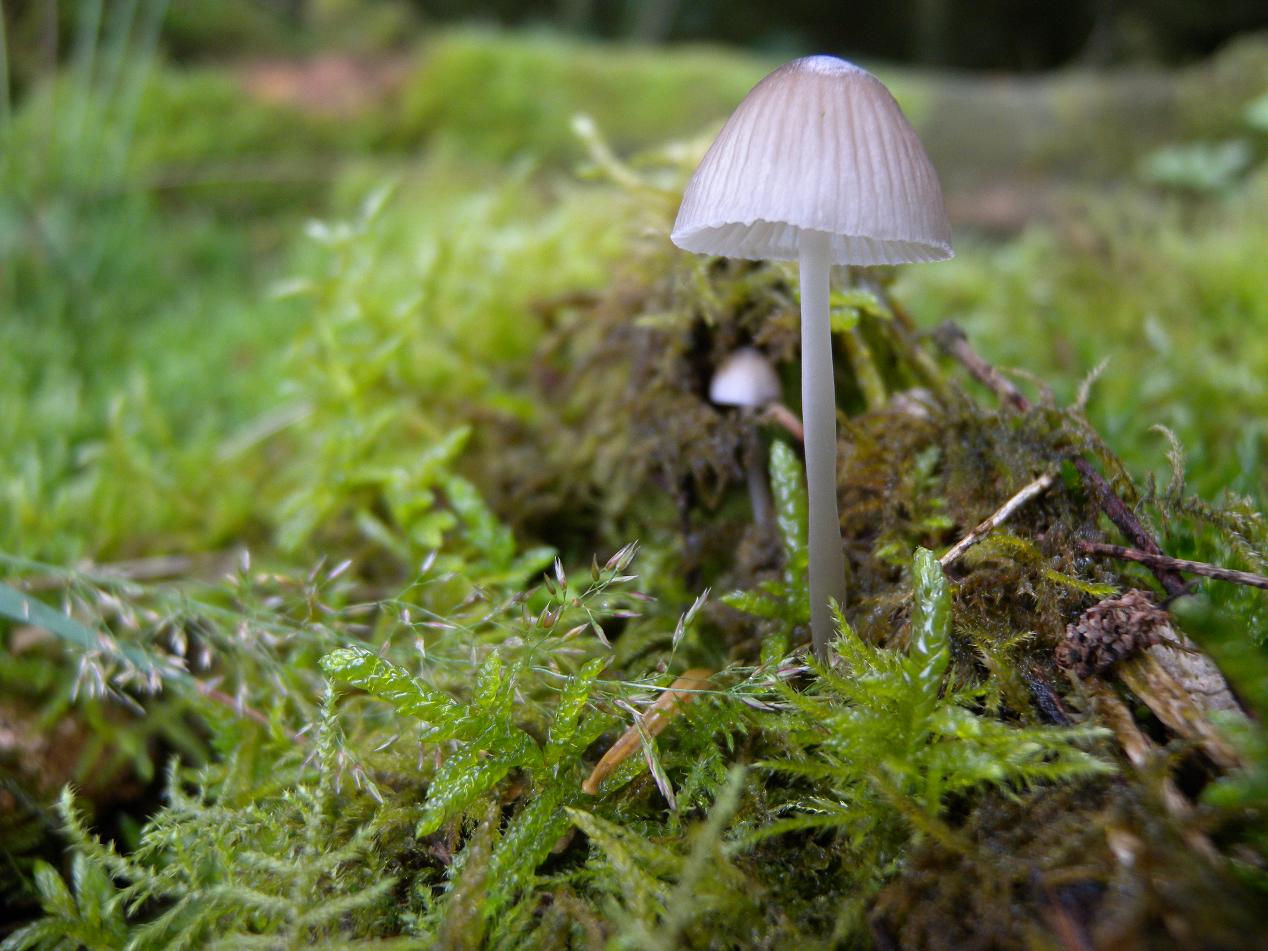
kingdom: Fungi
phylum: Basidiomycota
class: Agaricomycetes
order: Agaricales
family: Mycenaceae
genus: Mycena
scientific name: Mycena abramsii
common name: sommer-huesvamp
